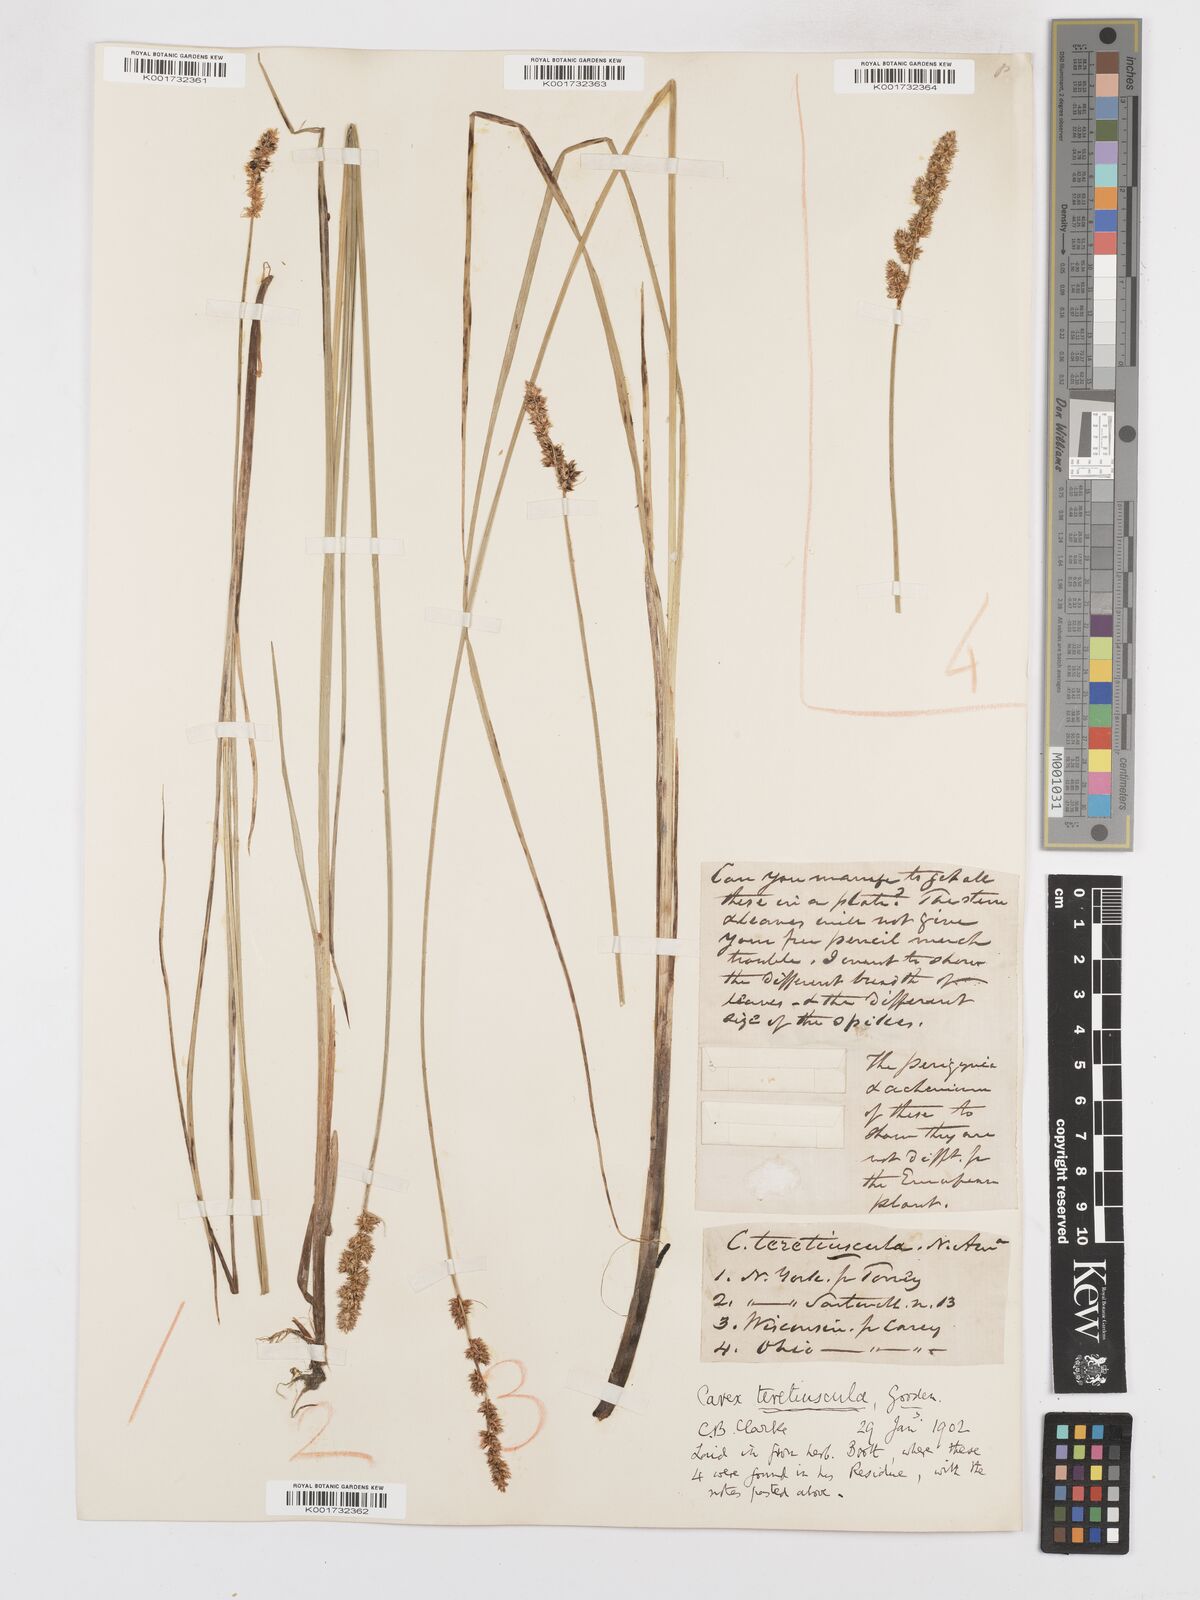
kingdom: Plantae
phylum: Tracheophyta
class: Liliopsida
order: Poales
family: Cyperaceae
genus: Carex
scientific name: Carex diandra
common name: Lesser tussock-sedge
